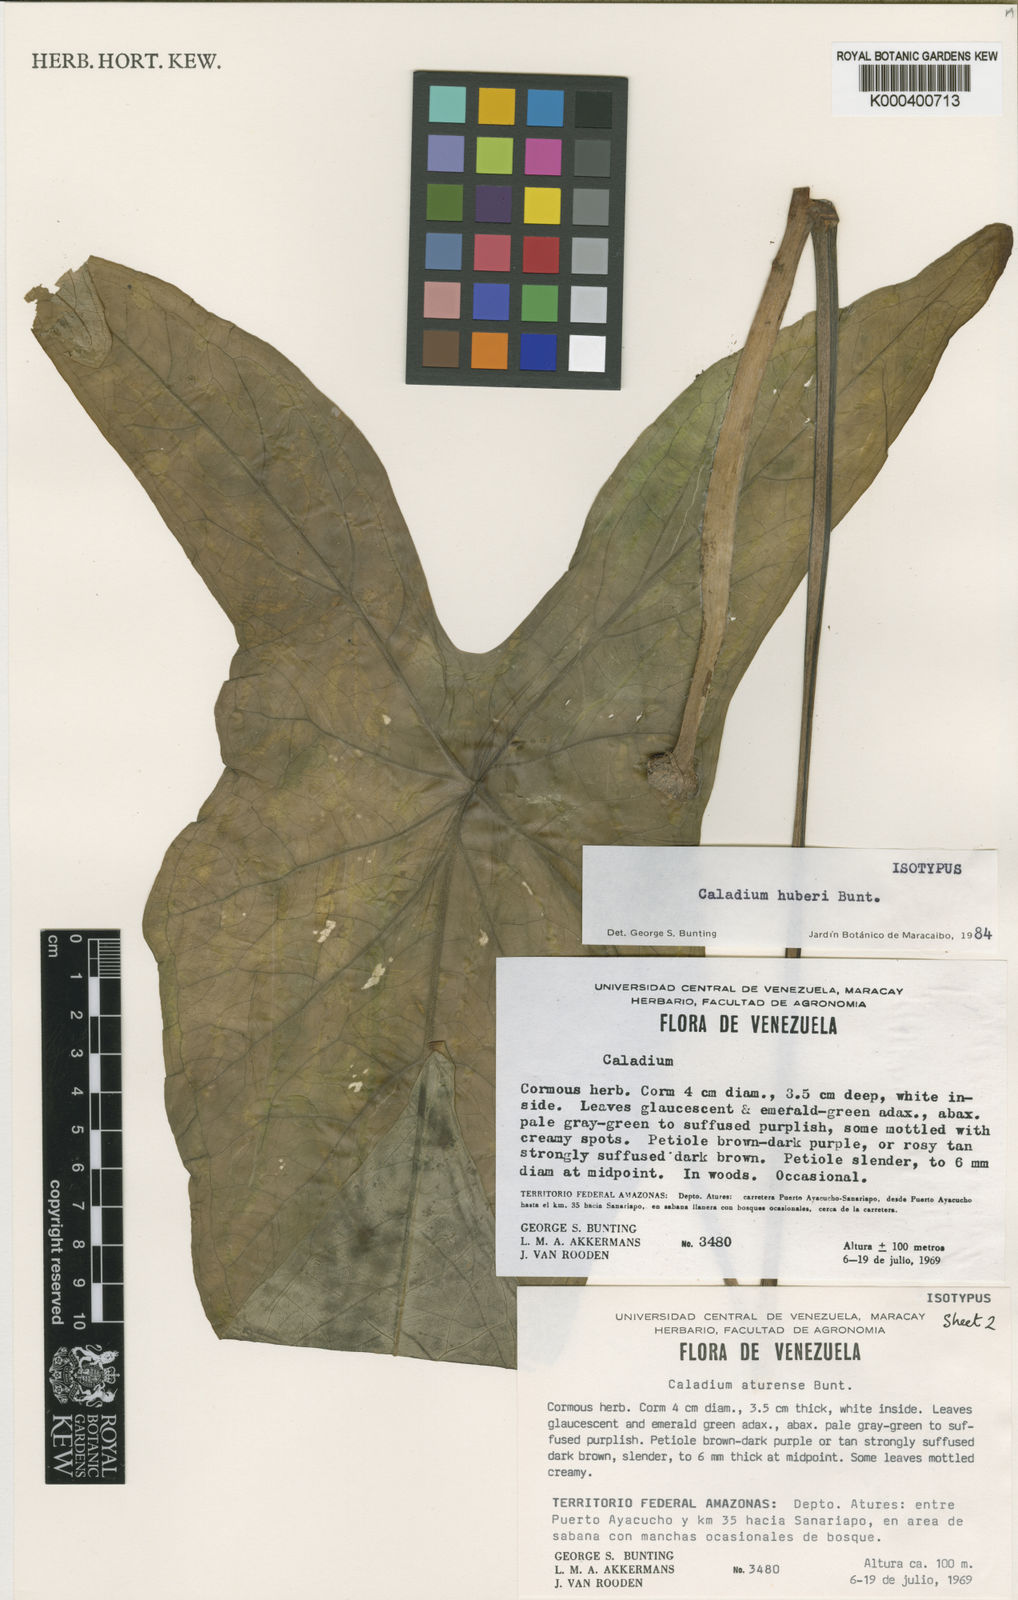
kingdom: Plantae
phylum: Tracheophyta
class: Liliopsida
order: Alismatales
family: Araceae
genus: Caladium
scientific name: Caladium
